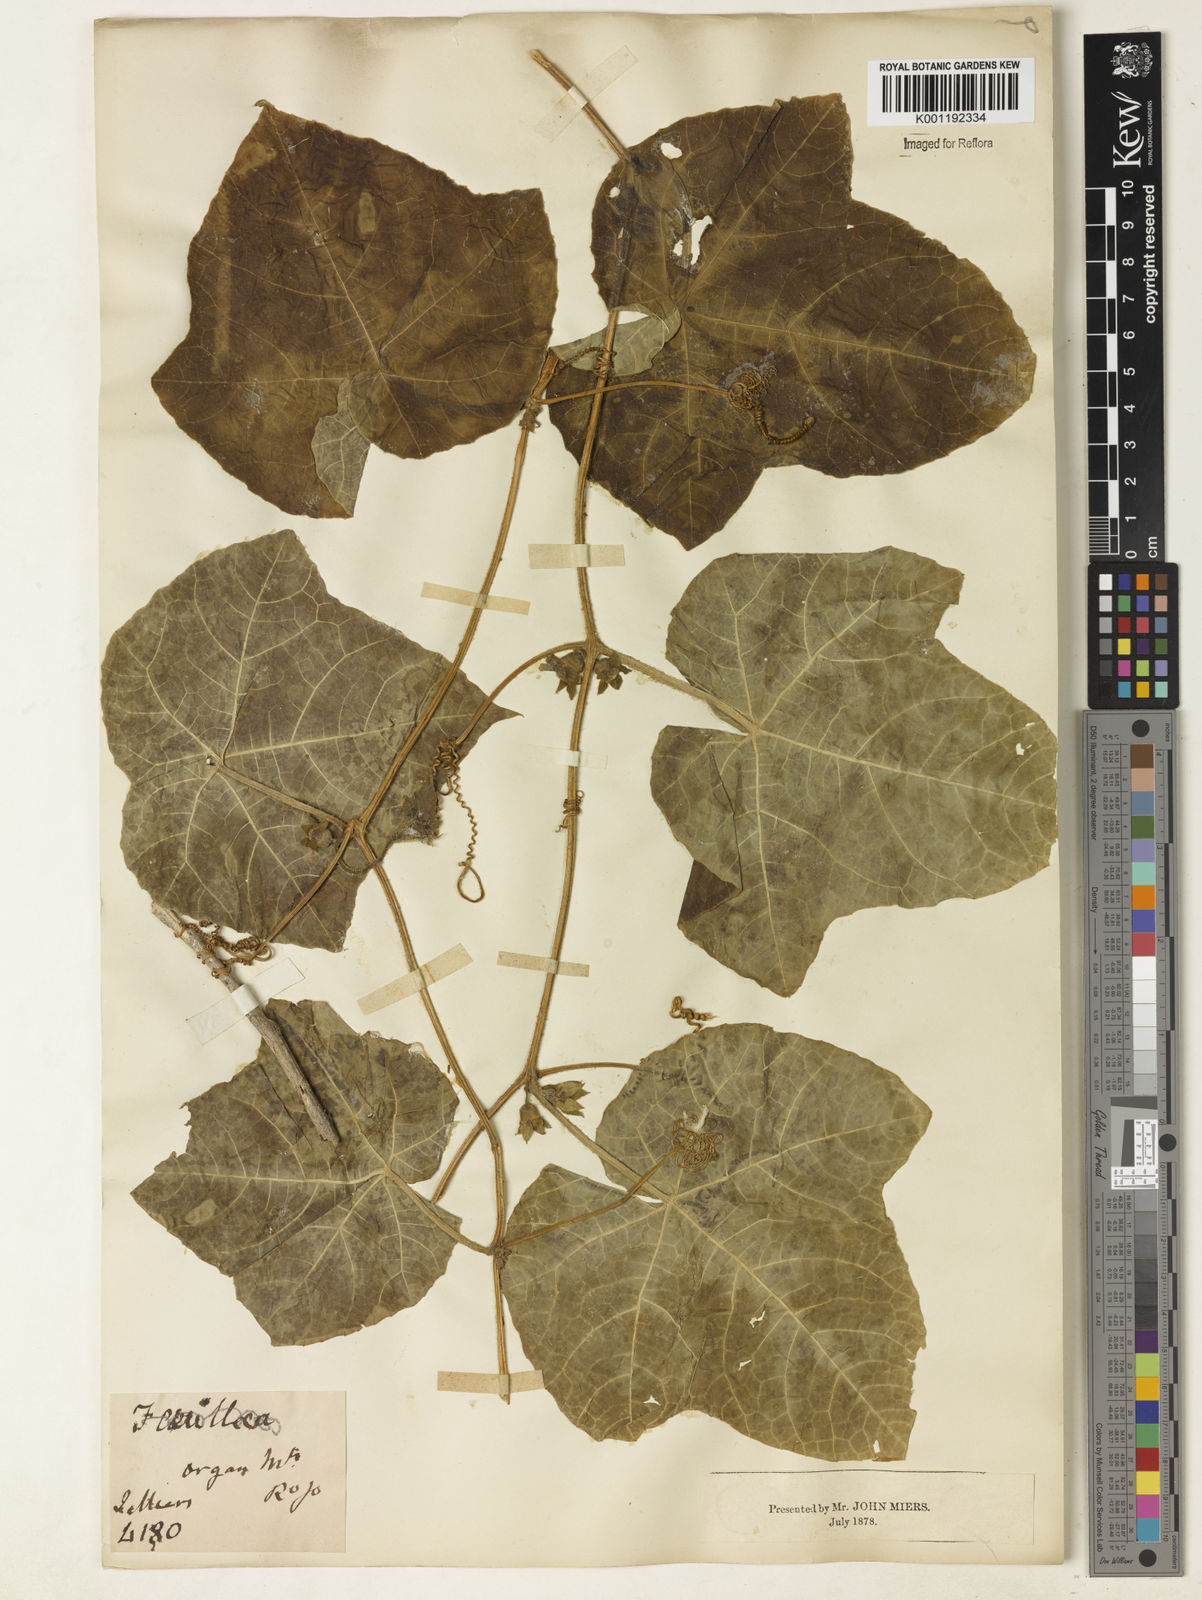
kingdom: Plantae
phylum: Tracheophyta
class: Magnoliopsida
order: Cucurbitales
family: Cucurbitaceae
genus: Cayaponia
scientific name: Cayaponia cabocla
